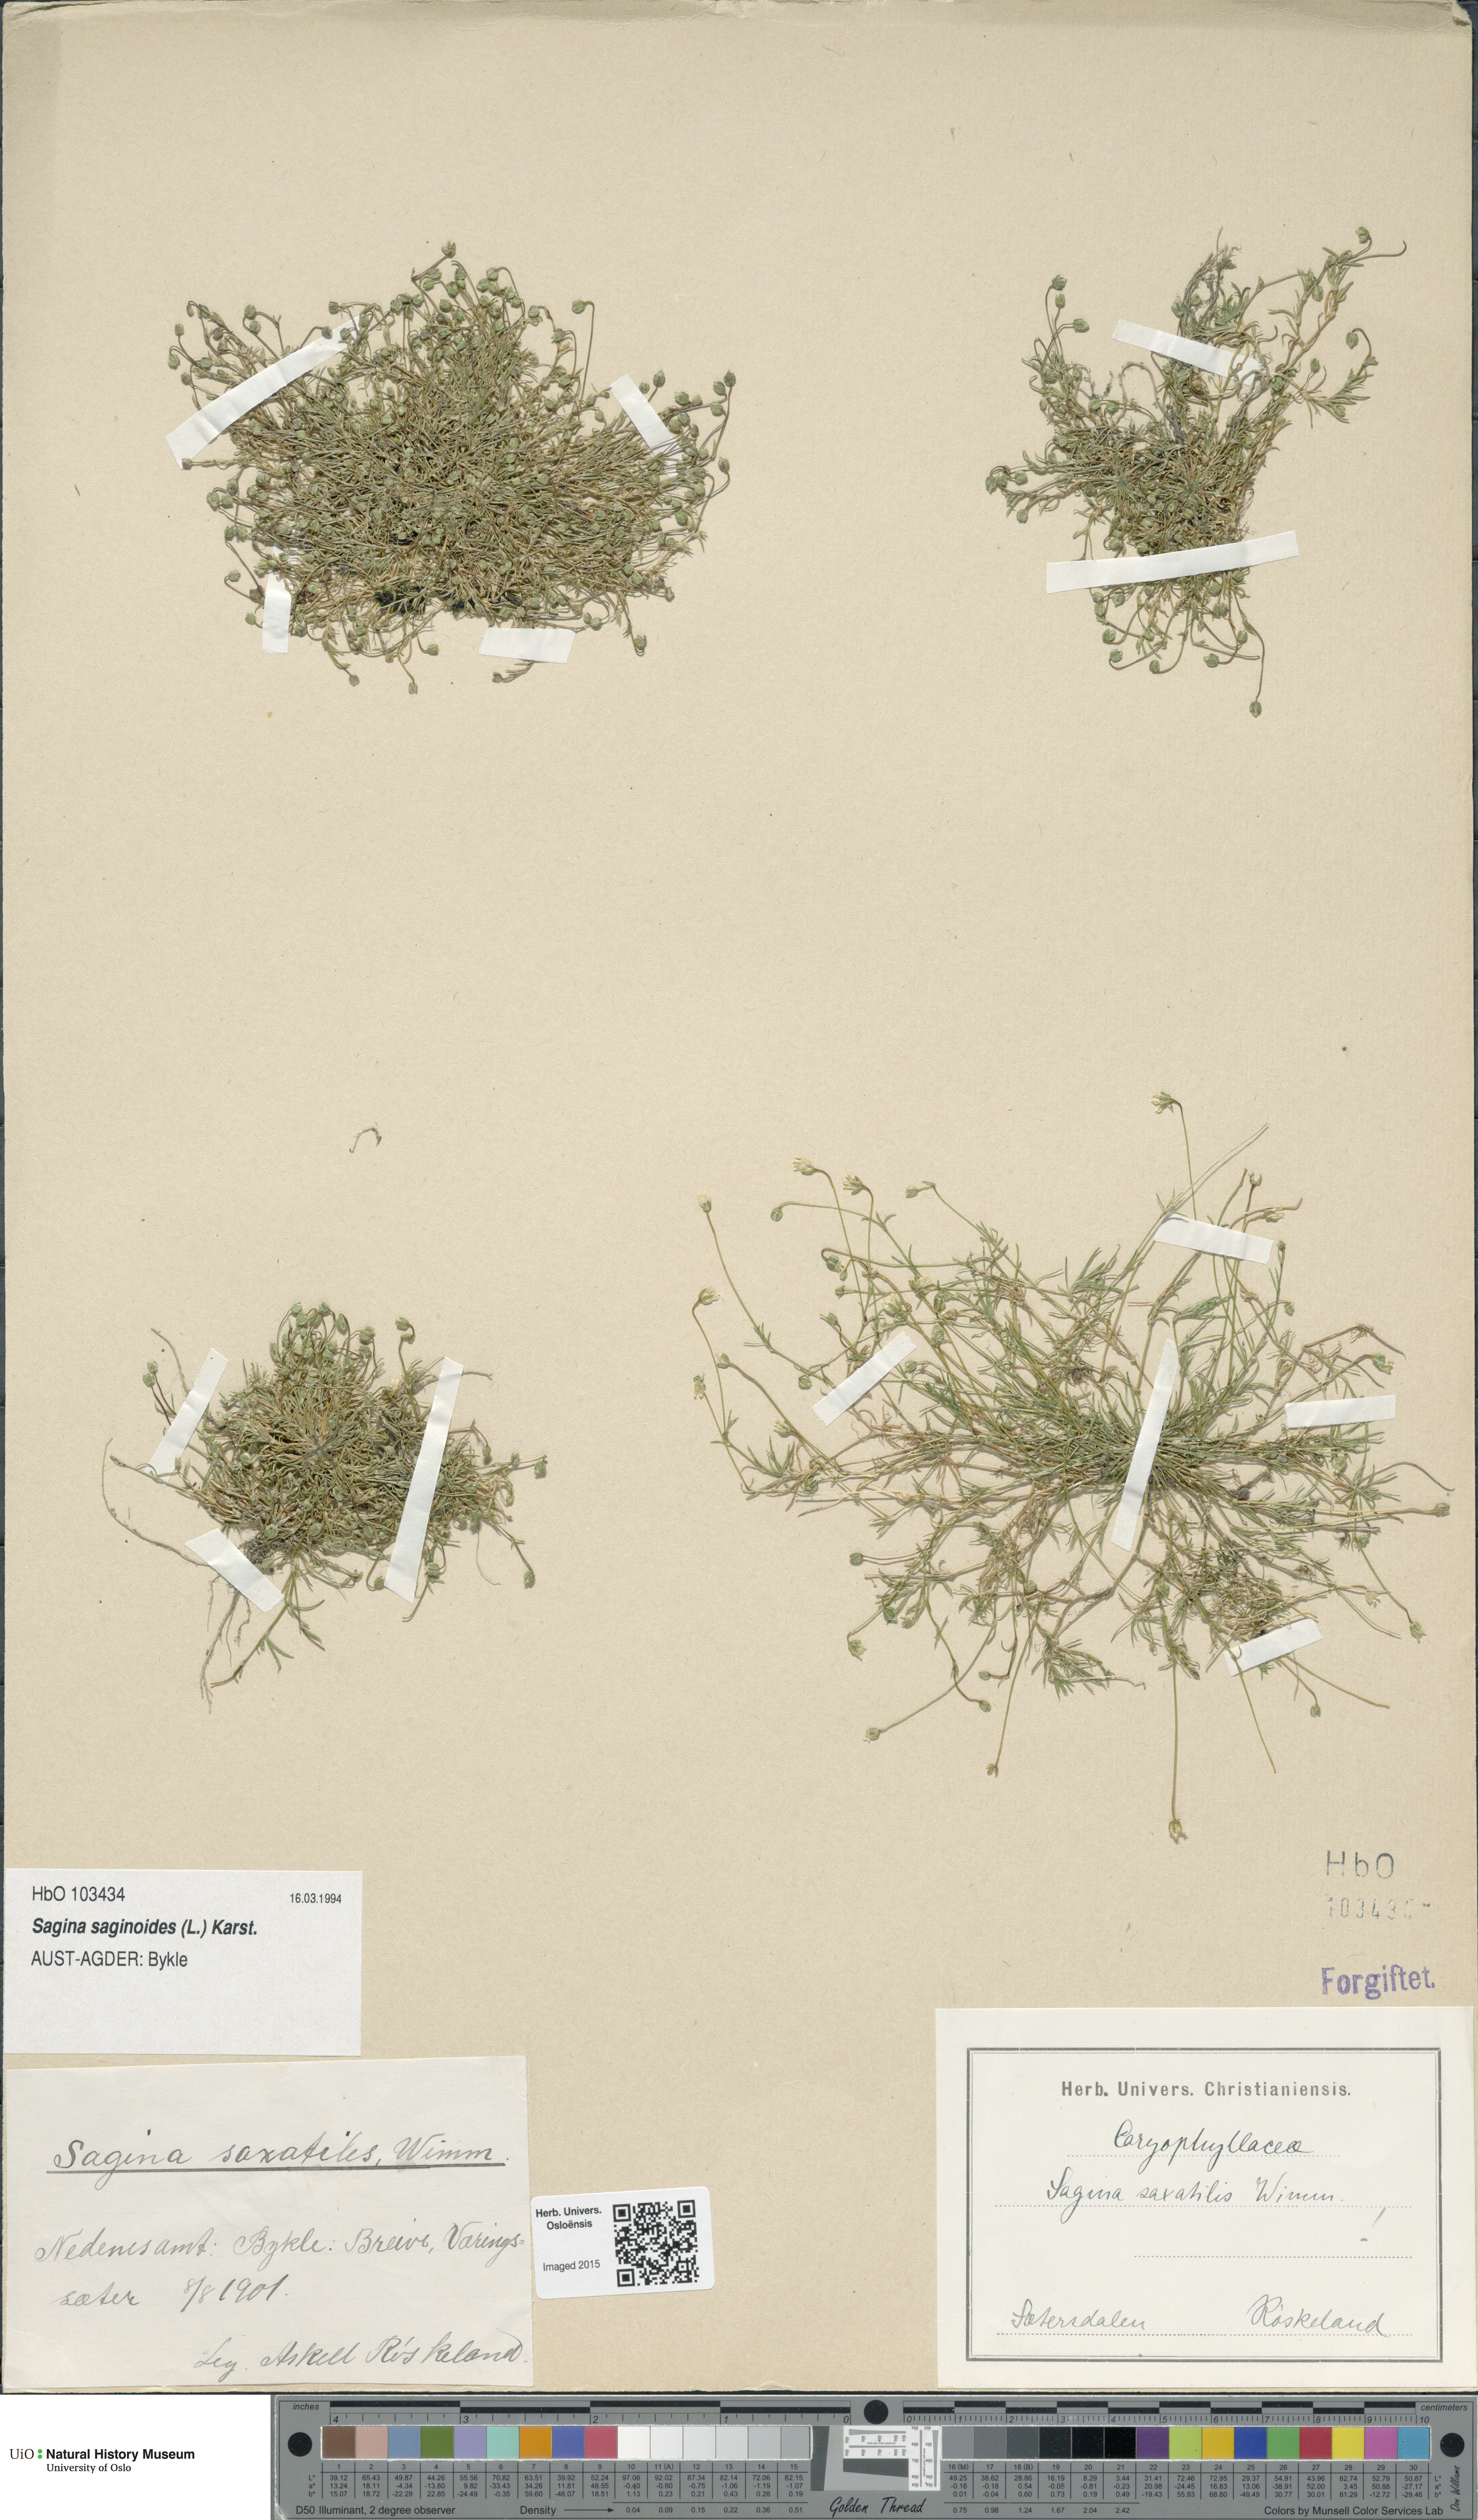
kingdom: Plantae
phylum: Tracheophyta
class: Magnoliopsida
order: Caryophyllales
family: Caryophyllaceae
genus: Sagina
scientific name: Sagina saginoides
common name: Alpine pearlwort
